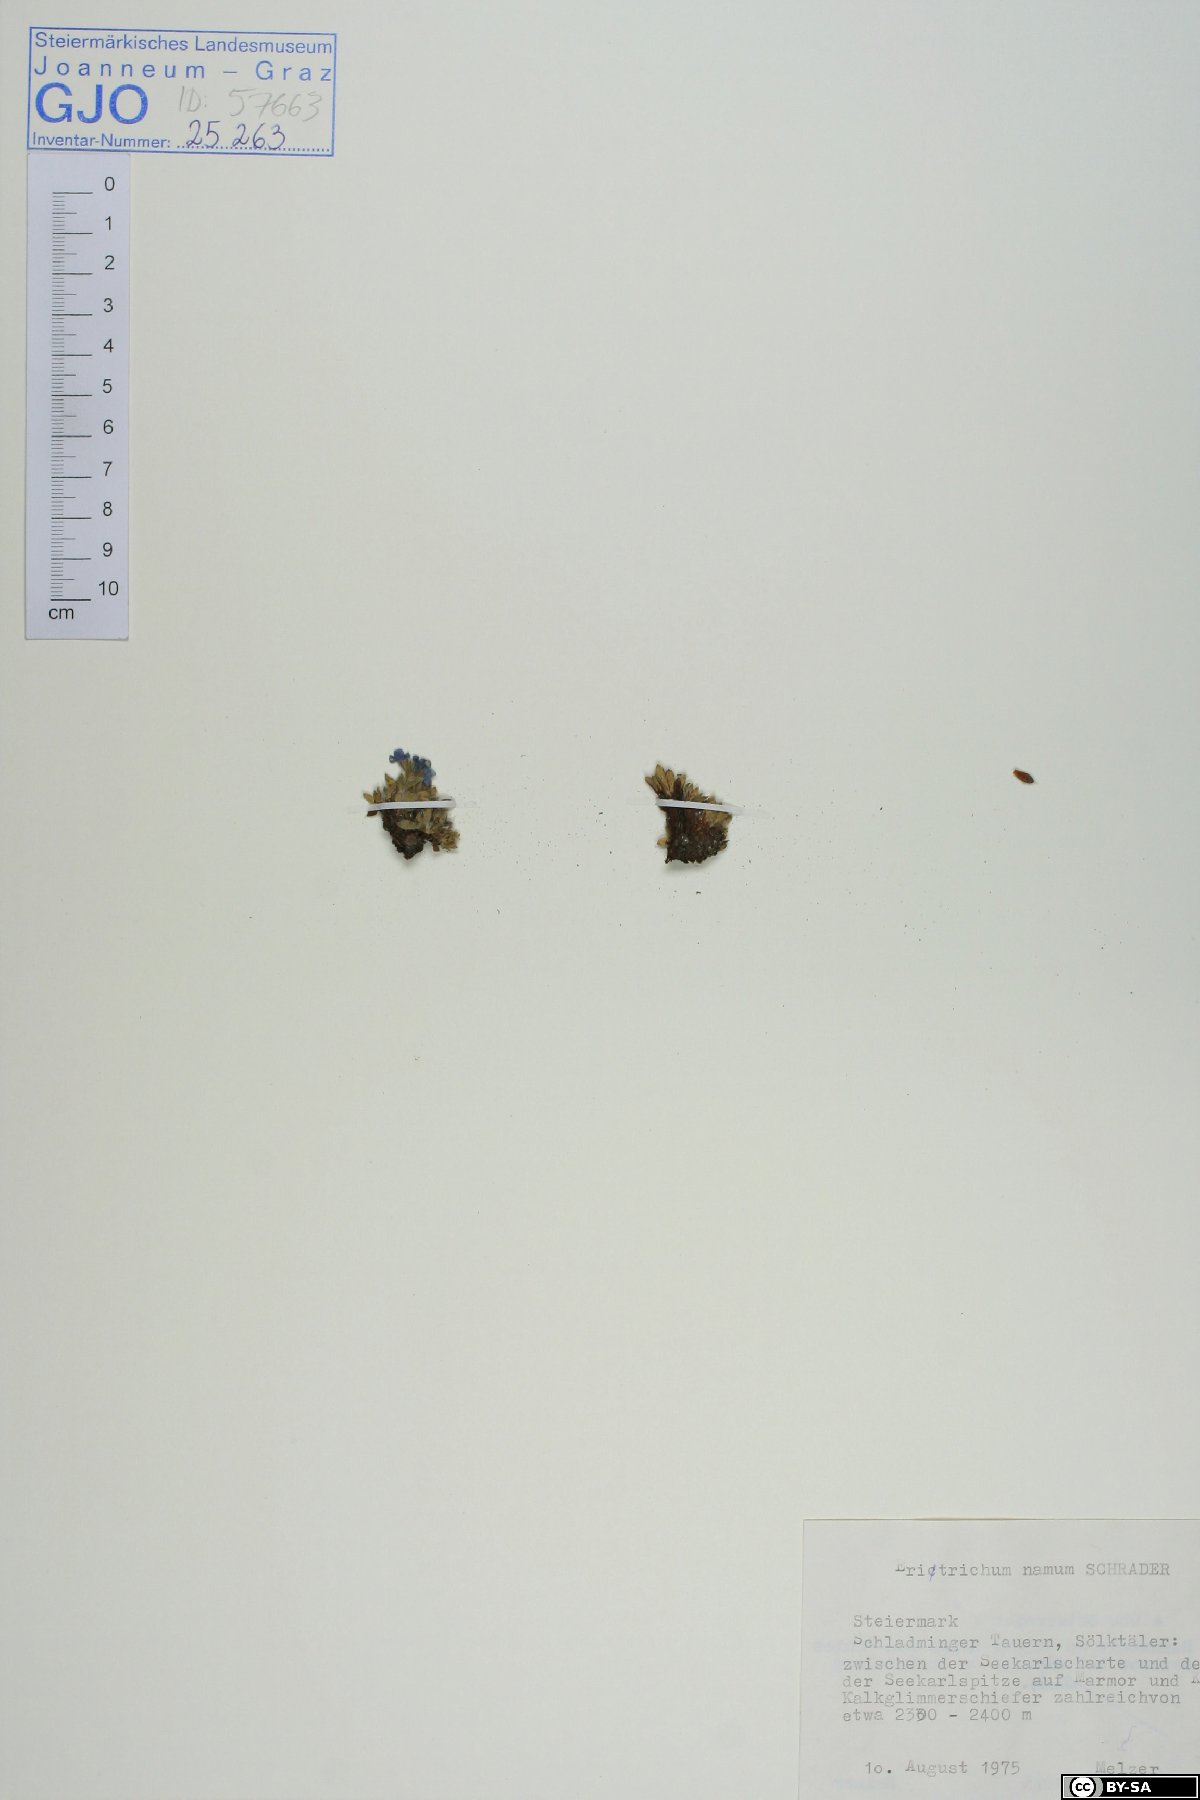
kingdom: Plantae
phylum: Tracheophyta
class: Magnoliopsida
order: Boraginales
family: Boraginaceae
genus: Eritrichium
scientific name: Eritrichium nanum
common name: King-of-the-alps
